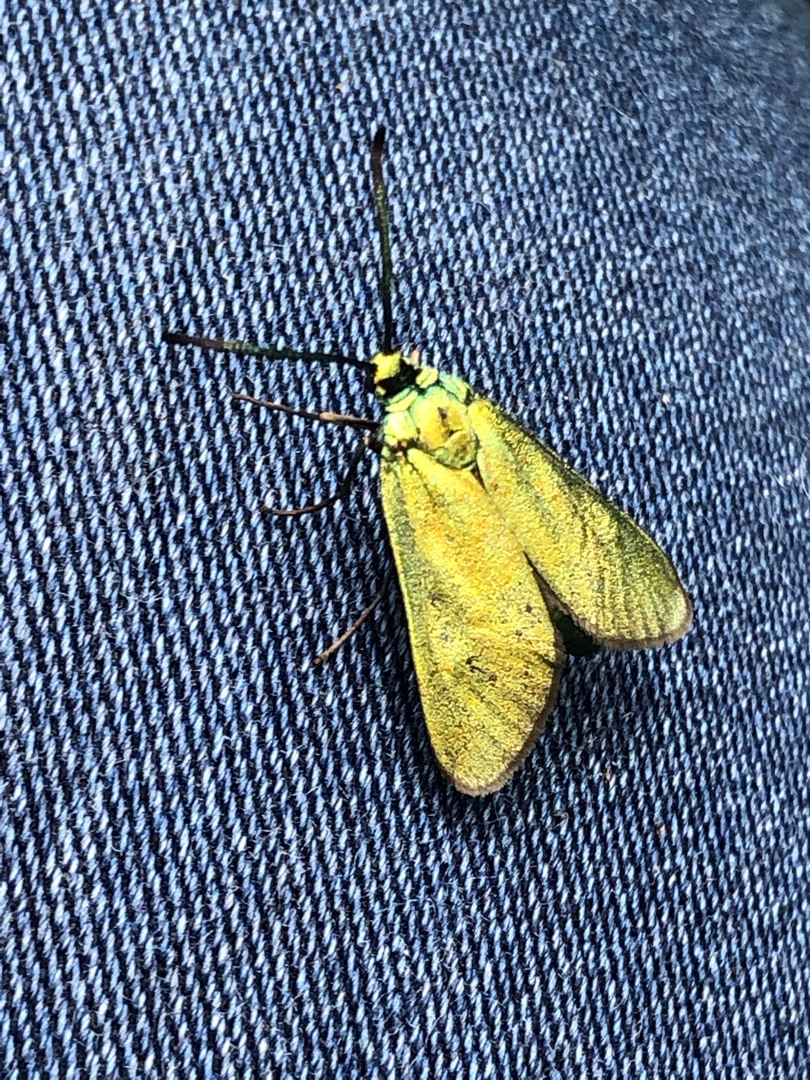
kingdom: Animalia
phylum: Arthropoda
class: Insecta
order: Lepidoptera
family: Zygaenidae
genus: Adscita
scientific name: Adscita statices
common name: Metalvinge
